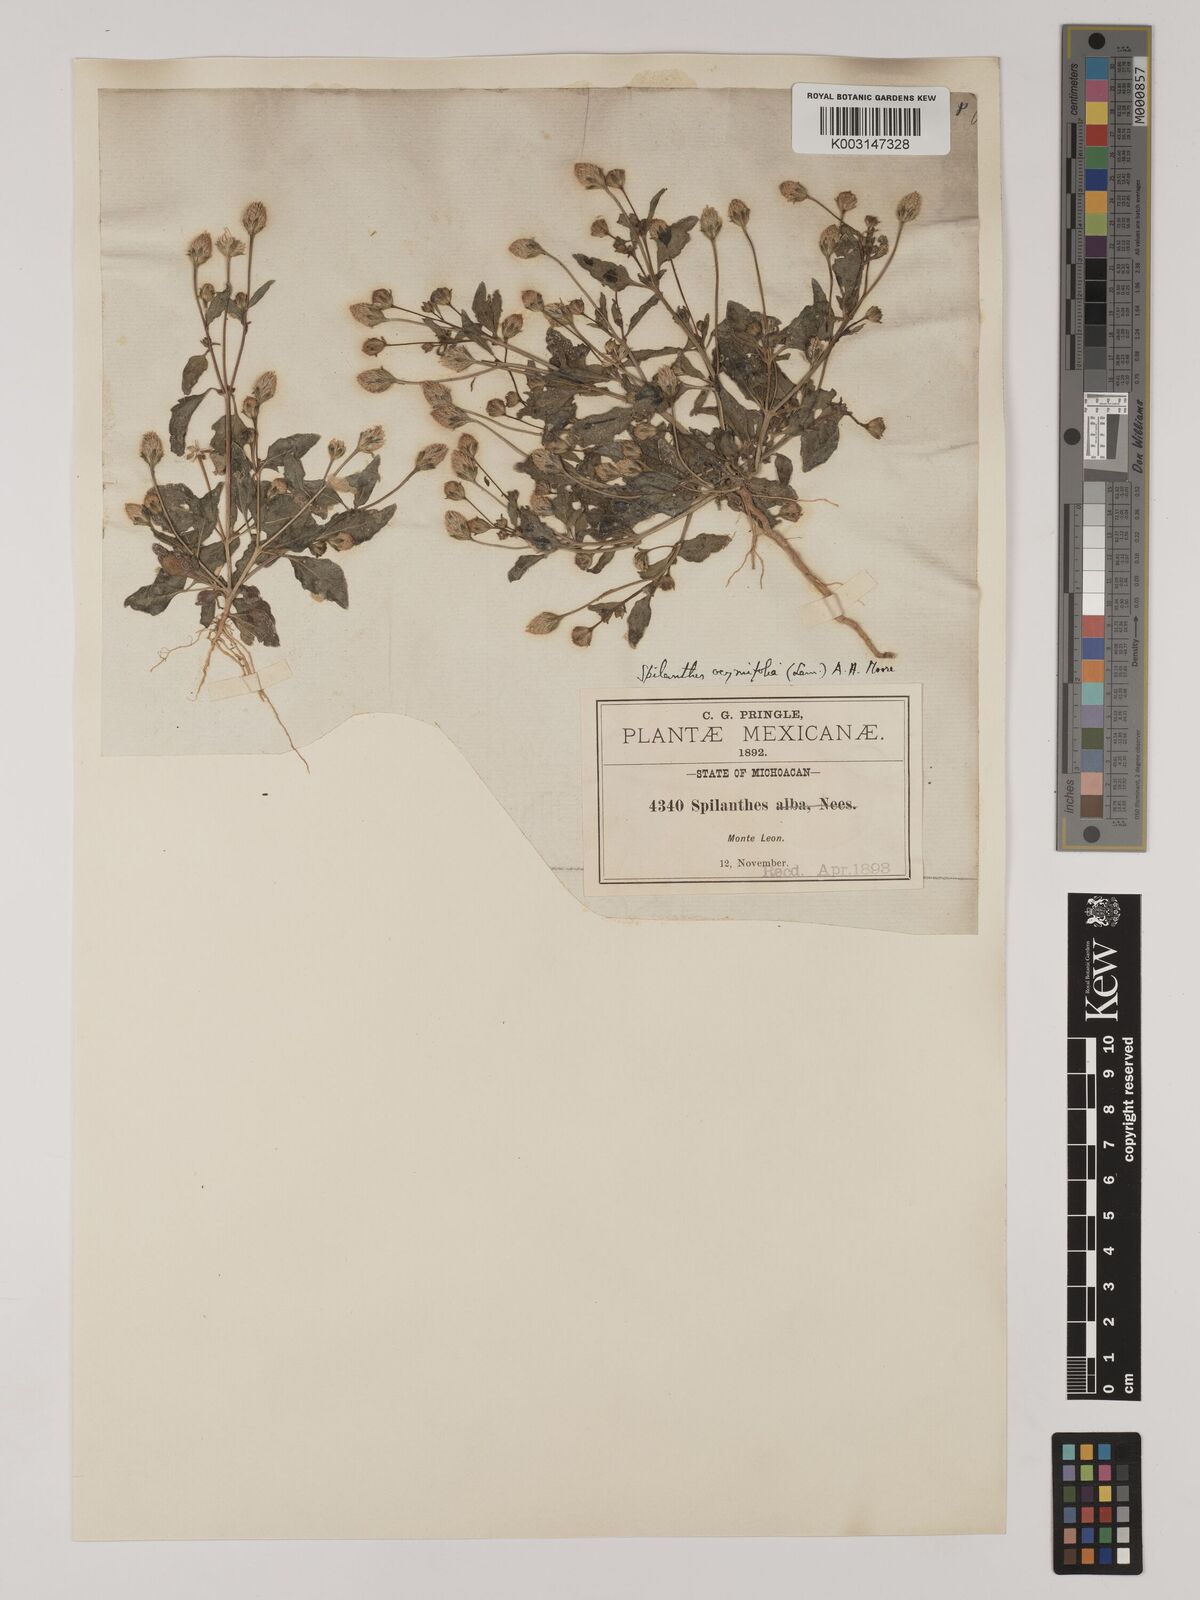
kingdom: Plantae
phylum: Tracheophyta
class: Magnoliopsida
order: Asterales
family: Asteraceae
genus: Acmella
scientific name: Acmella radicans
